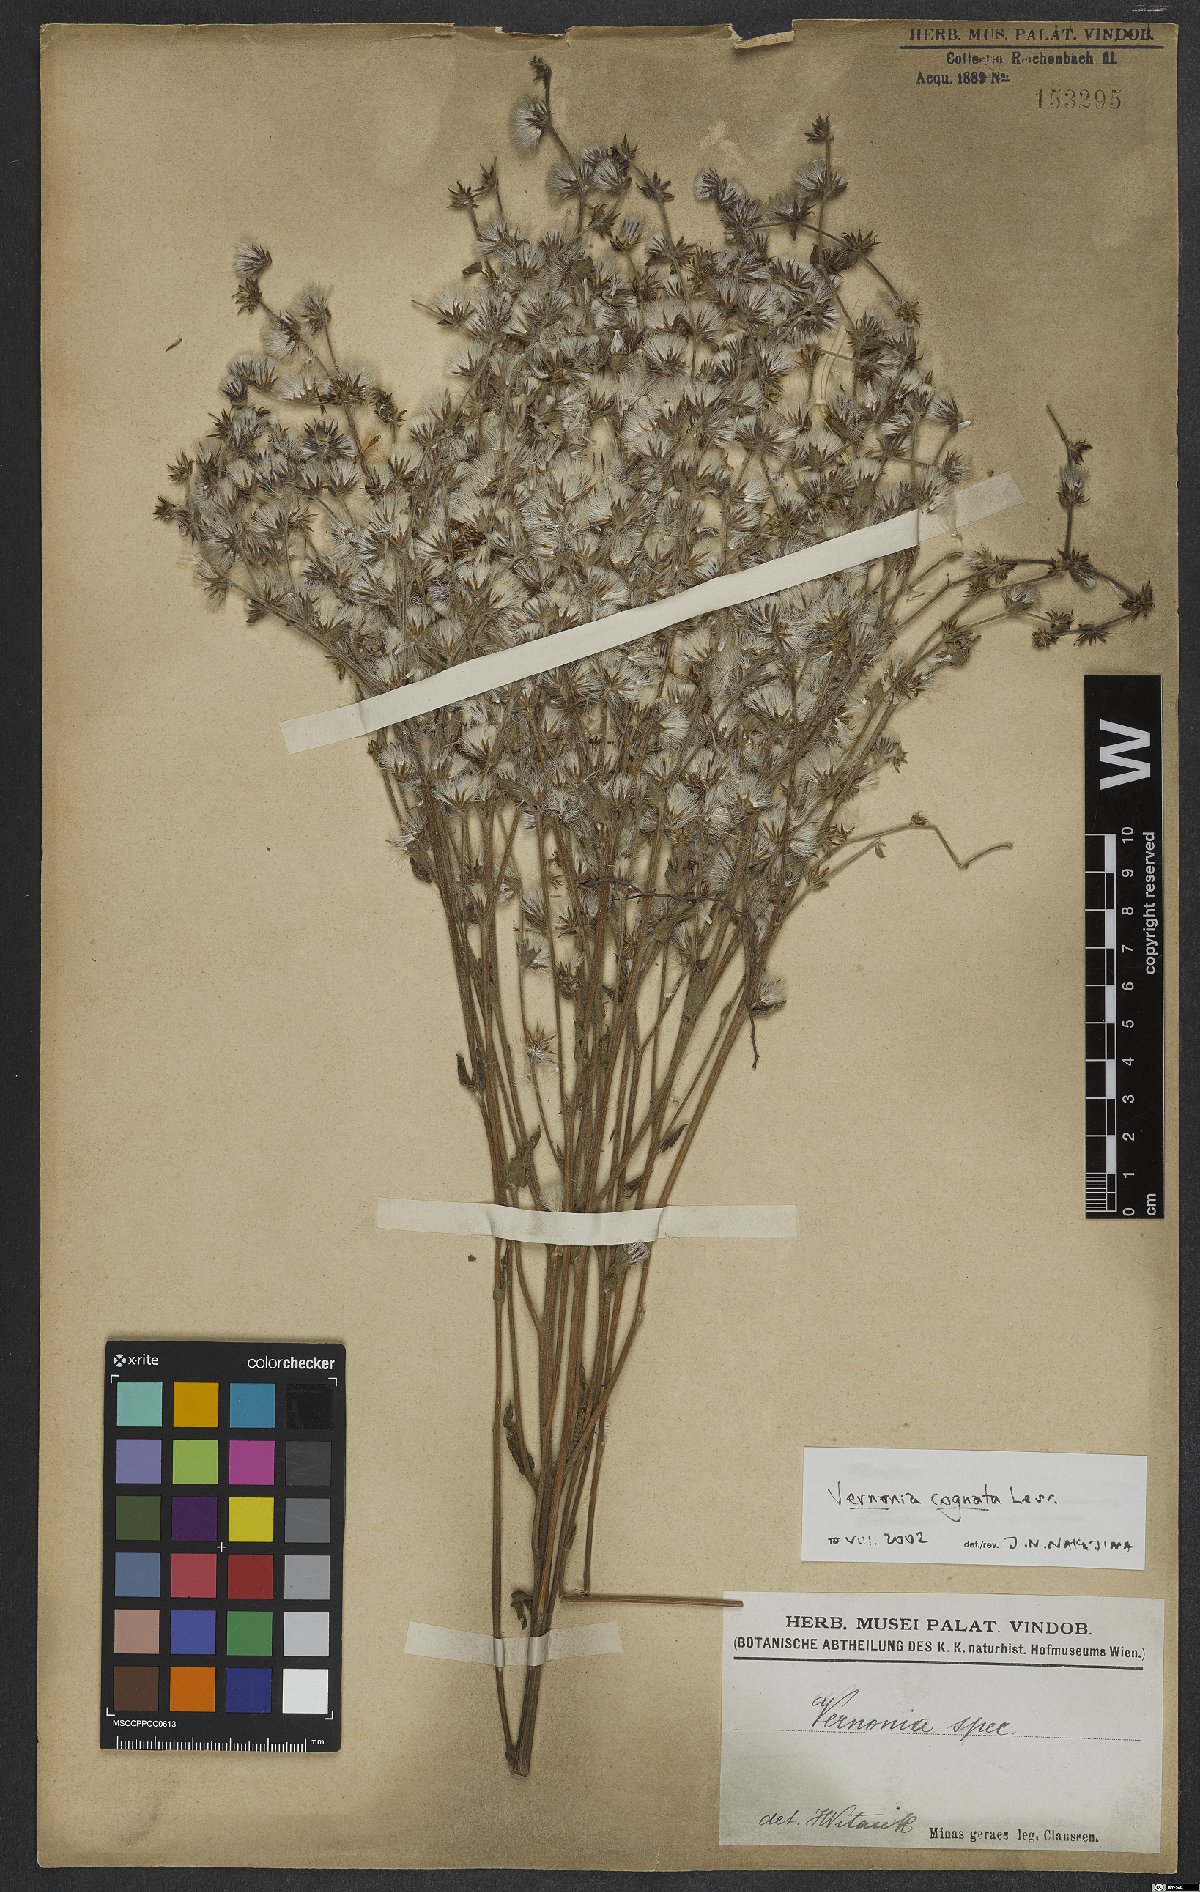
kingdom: Plantae
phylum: Tracheophyta
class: Magnoliopsida
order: Asterales
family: Asteraceae
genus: Chrysolaena
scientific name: Chrysolaena cognata
